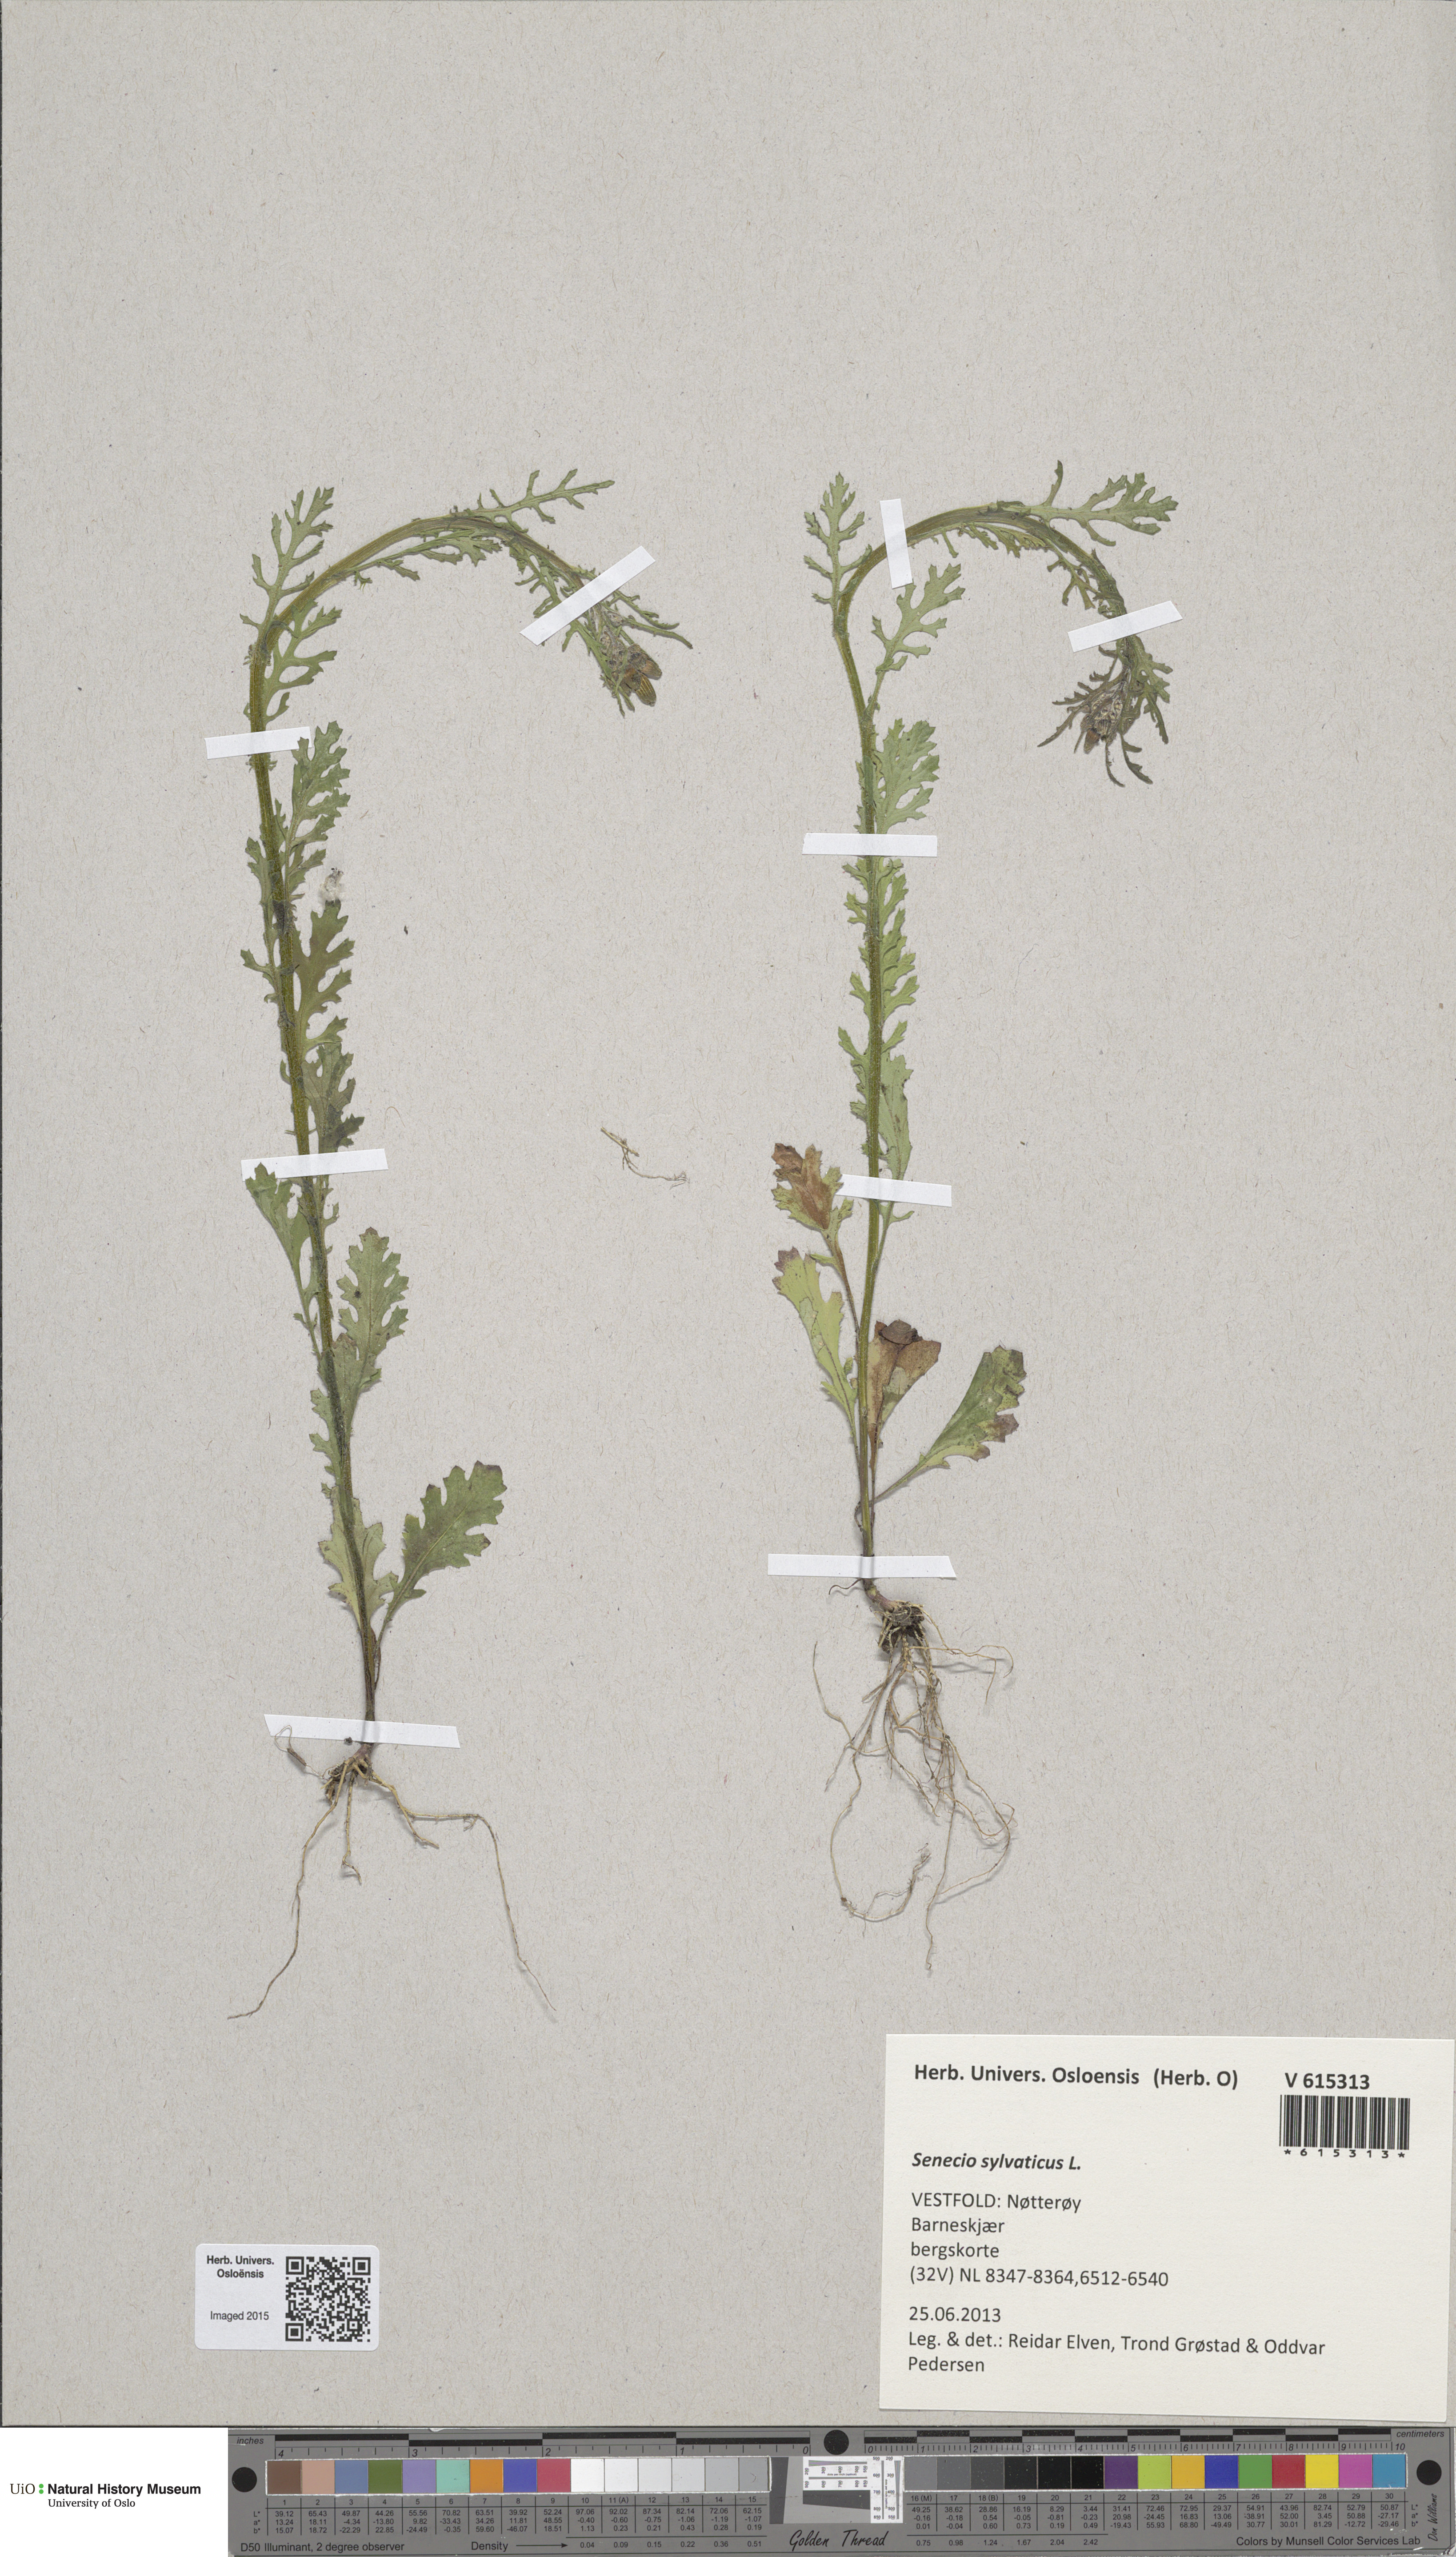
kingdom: Plantae
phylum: Tracheophyta
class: Magnoliopsida
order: Asterales
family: Asteraceae
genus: Senecio
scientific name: Senecio sylvaticus
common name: Woodland ragwort
